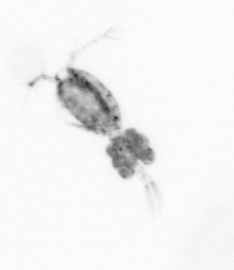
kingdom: Animalia
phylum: Arthropoda
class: Copepoda
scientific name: Copepoda
